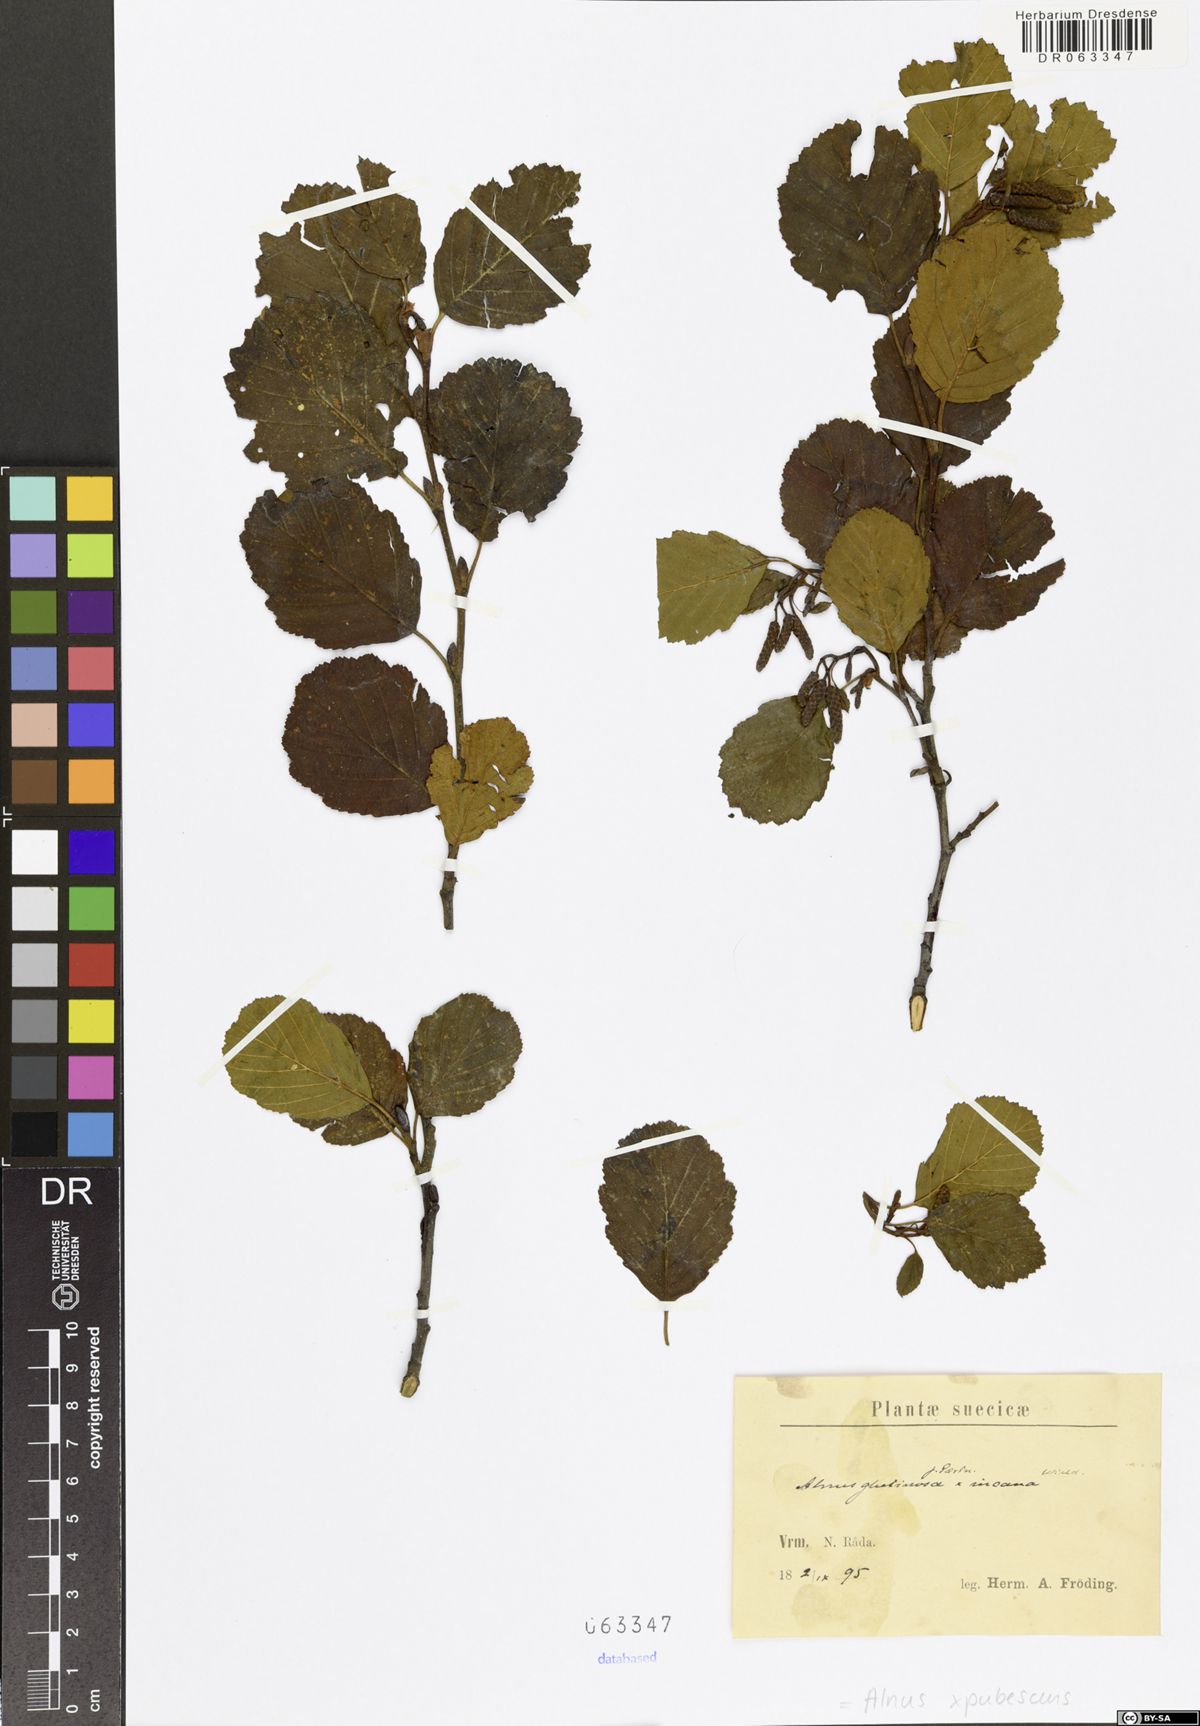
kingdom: Plantae
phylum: Tracheophyta
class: Magnoliopsida
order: Fagales
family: Betulaceae
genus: Alnus
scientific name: Alnus pubescens
